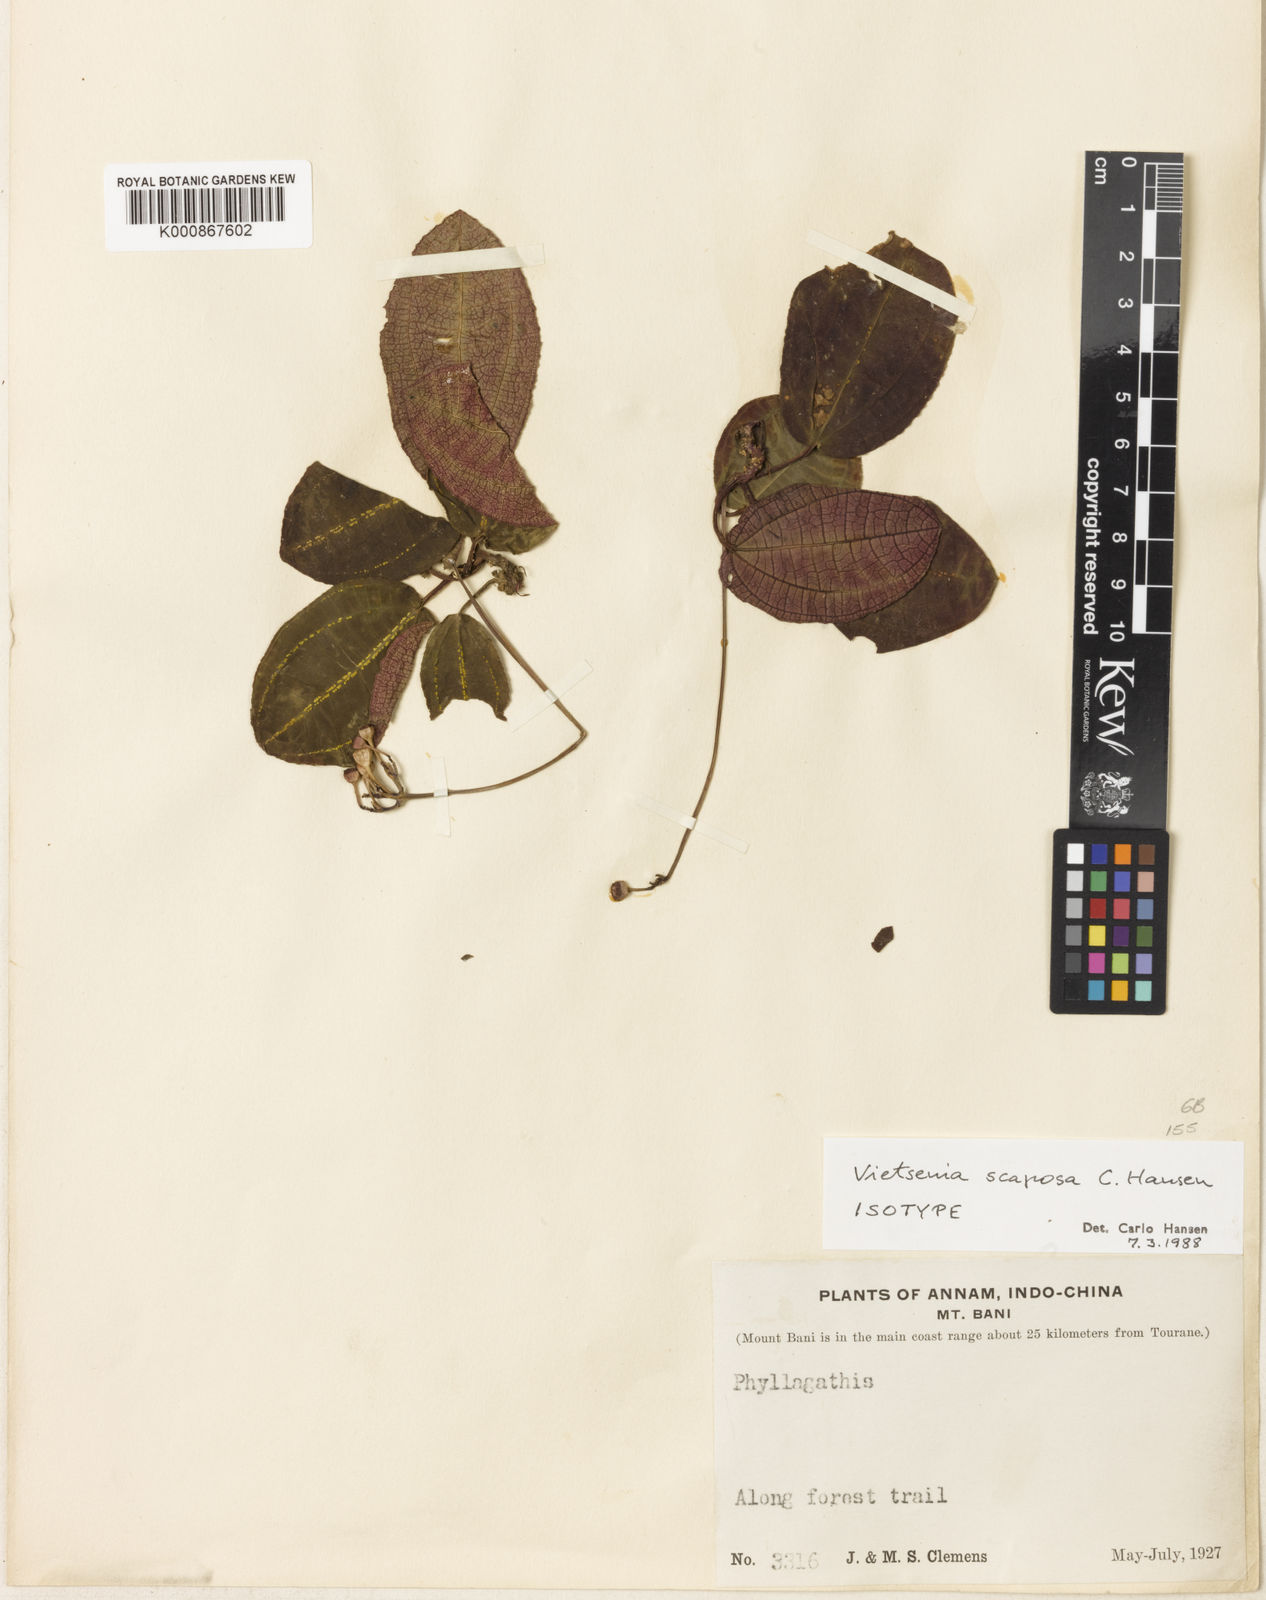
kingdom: Plantae
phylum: Tracheophyta
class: Magnoliopsida
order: Myrtales
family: Melastomataceae
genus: Vietsenia
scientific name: Vietsenia scaposa
